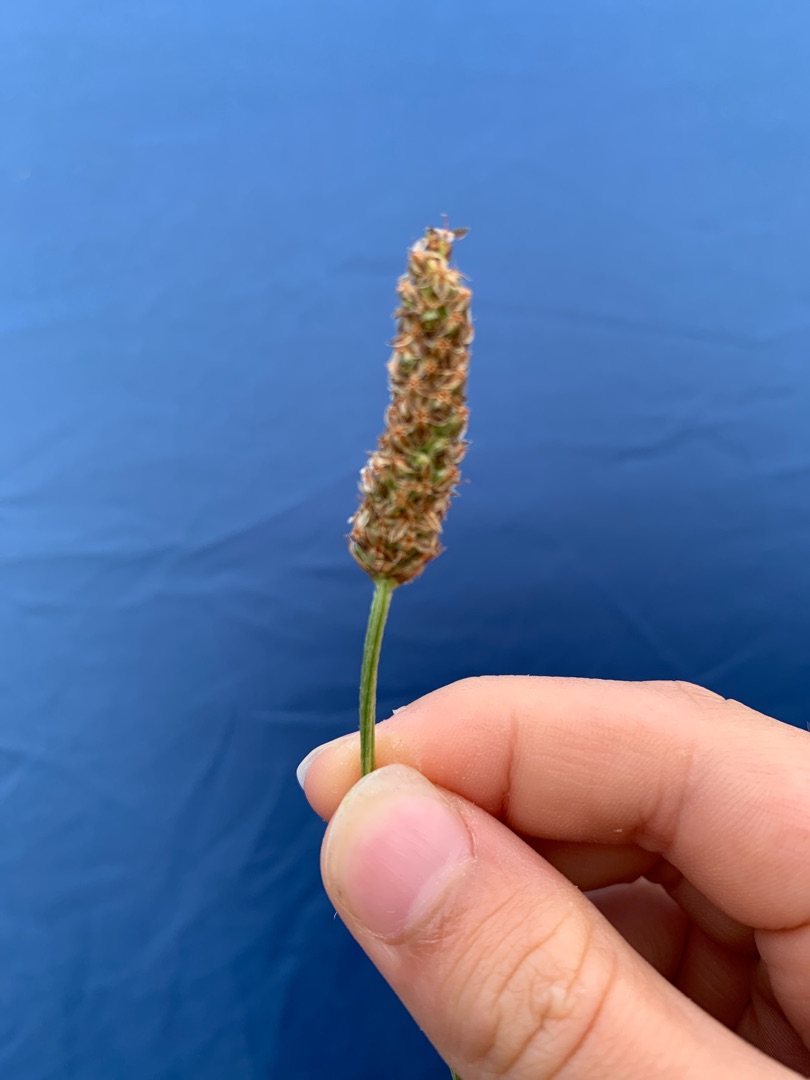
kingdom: Plantae
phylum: Tracheophyta
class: Magnoliopsida
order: Lamiales
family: Plantaginaceae
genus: Plantago
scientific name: Plantago lanceolata
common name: Lancet-vejbred
